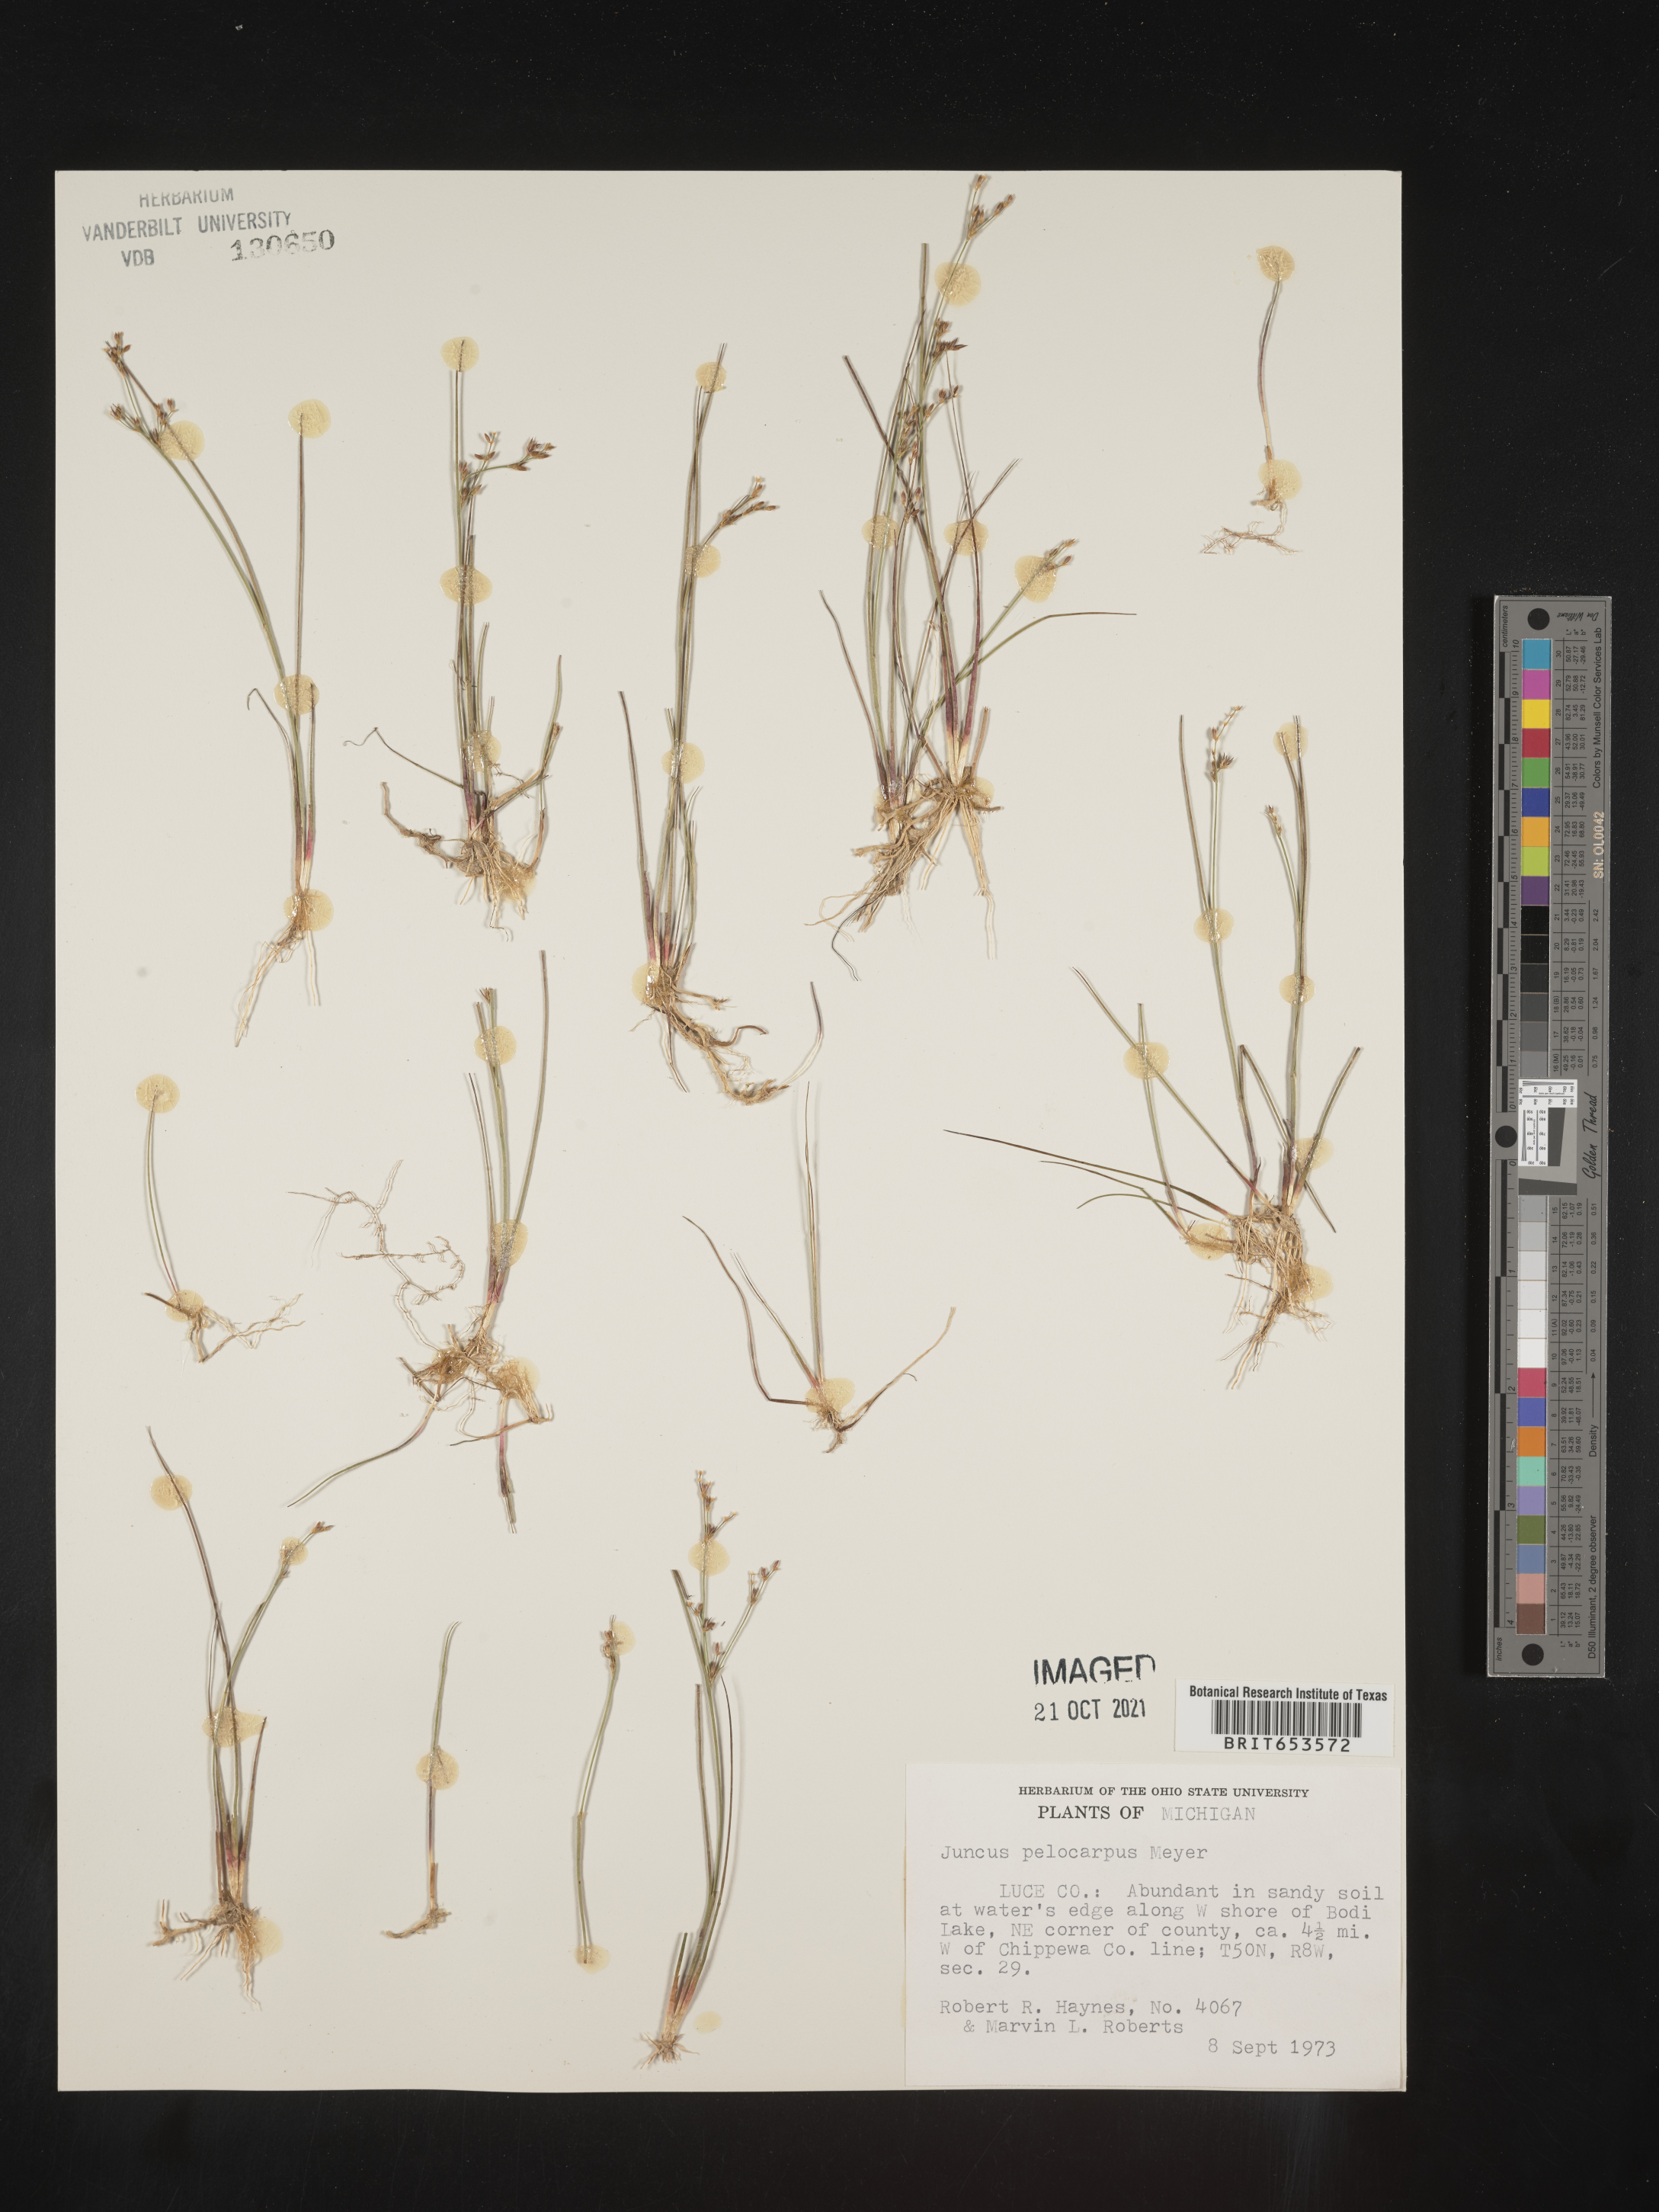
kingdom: Plantae
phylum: Tracheophyta
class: Liliopsida
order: Poales
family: Juncaceae
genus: Juncus
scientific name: Juncus pelocarpus
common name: Brown-fruited rush
